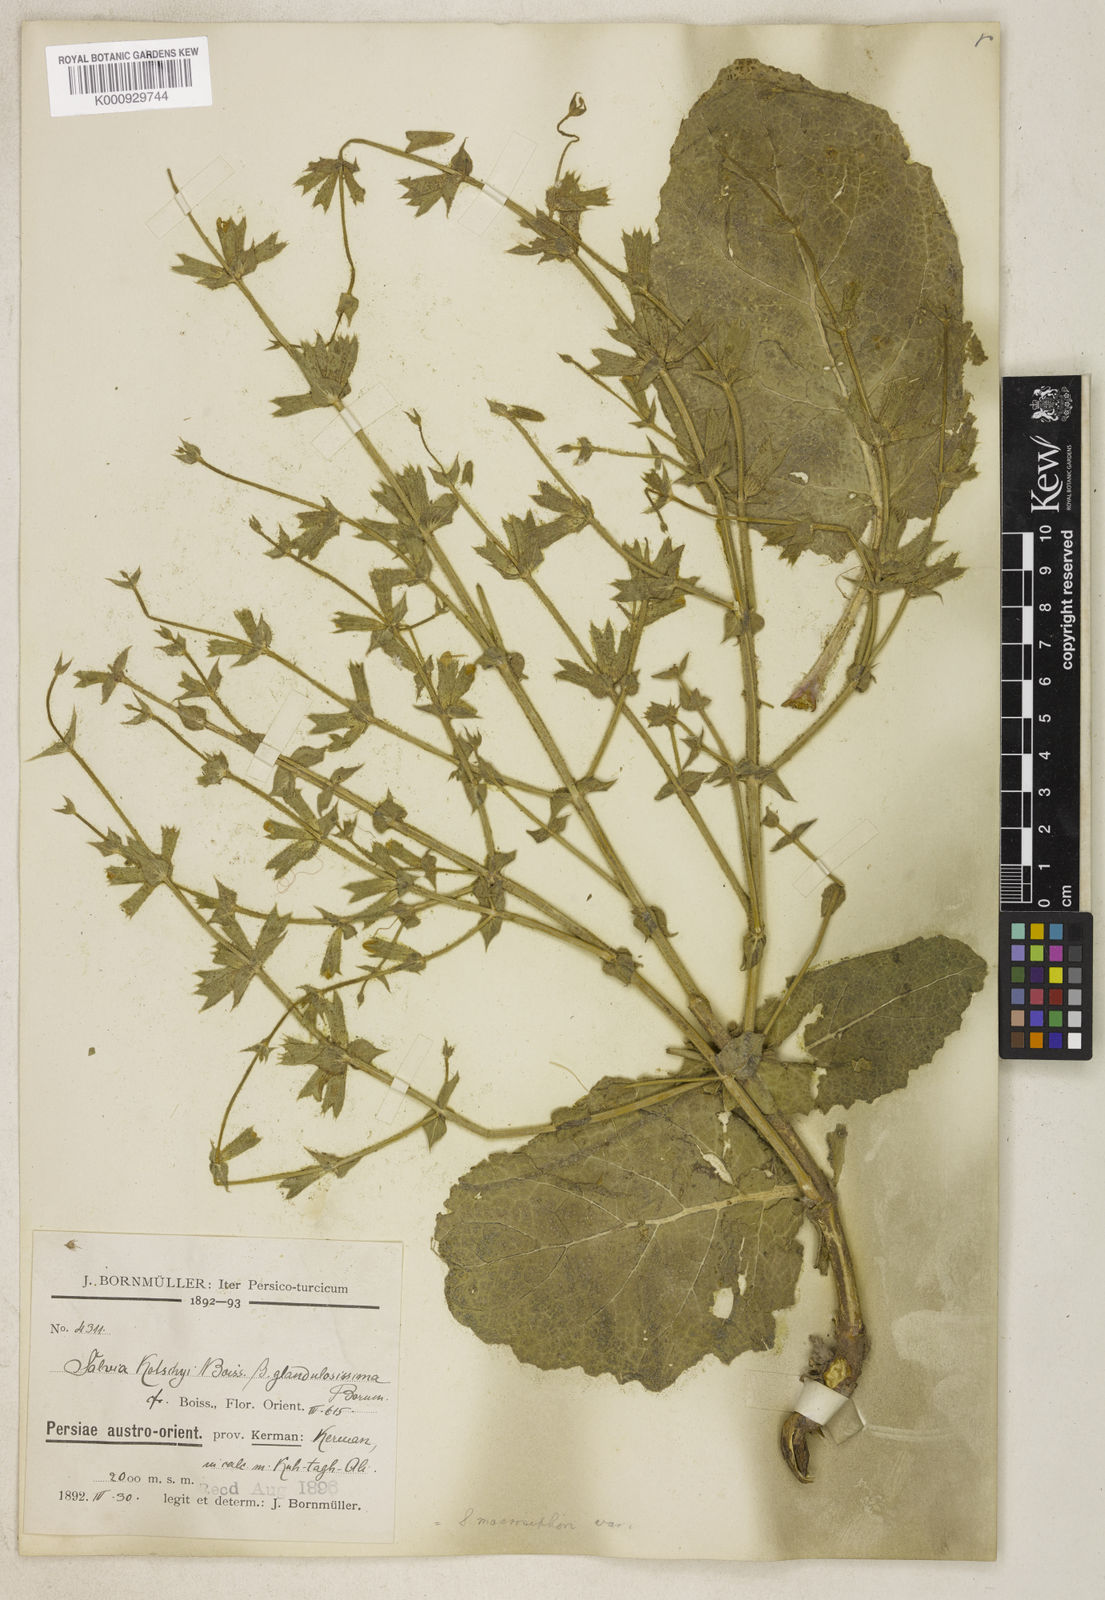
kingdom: Plantae
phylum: Tracheophyta
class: Magnoliopsida
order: Lamiales
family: Lamiaceae
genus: Salvia
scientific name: Salvia spinosa
